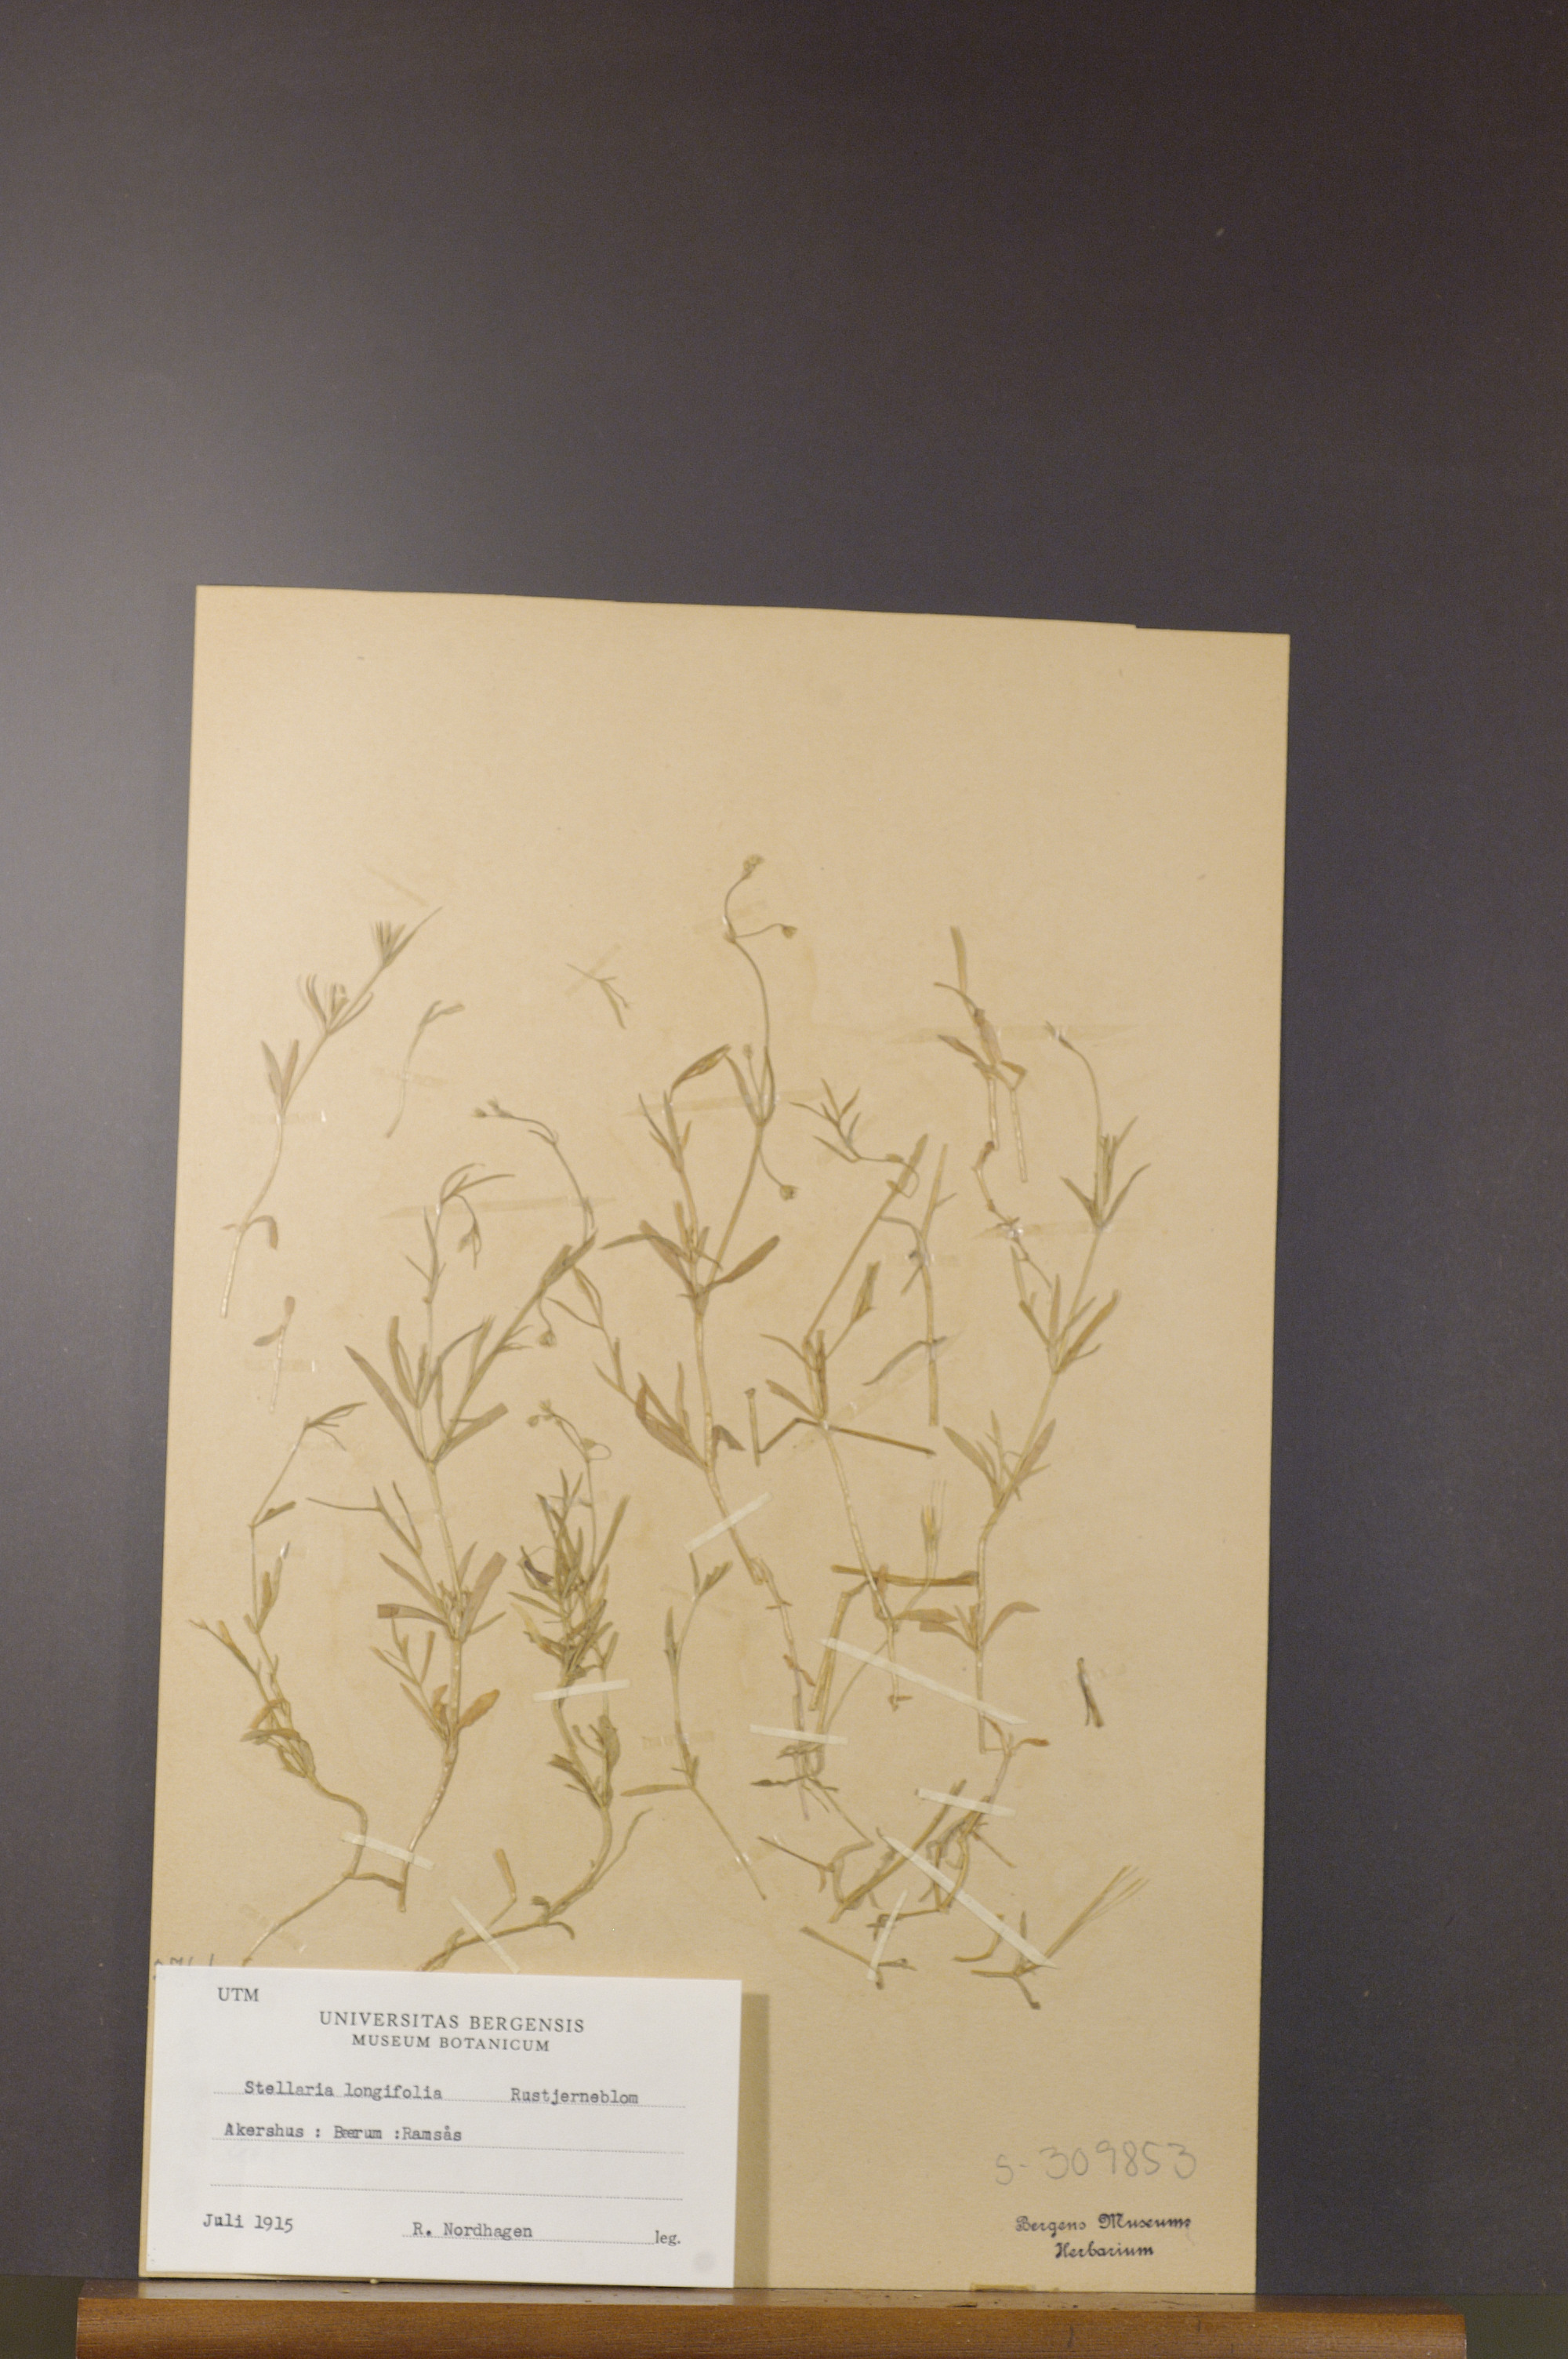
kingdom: Plantae
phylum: Tracheophyta
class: Magnoliopsida
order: Caryophyllales
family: Caryophyllaceae
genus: Stellaria
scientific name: Stellaria longifolia
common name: Long-leaved chickweed
